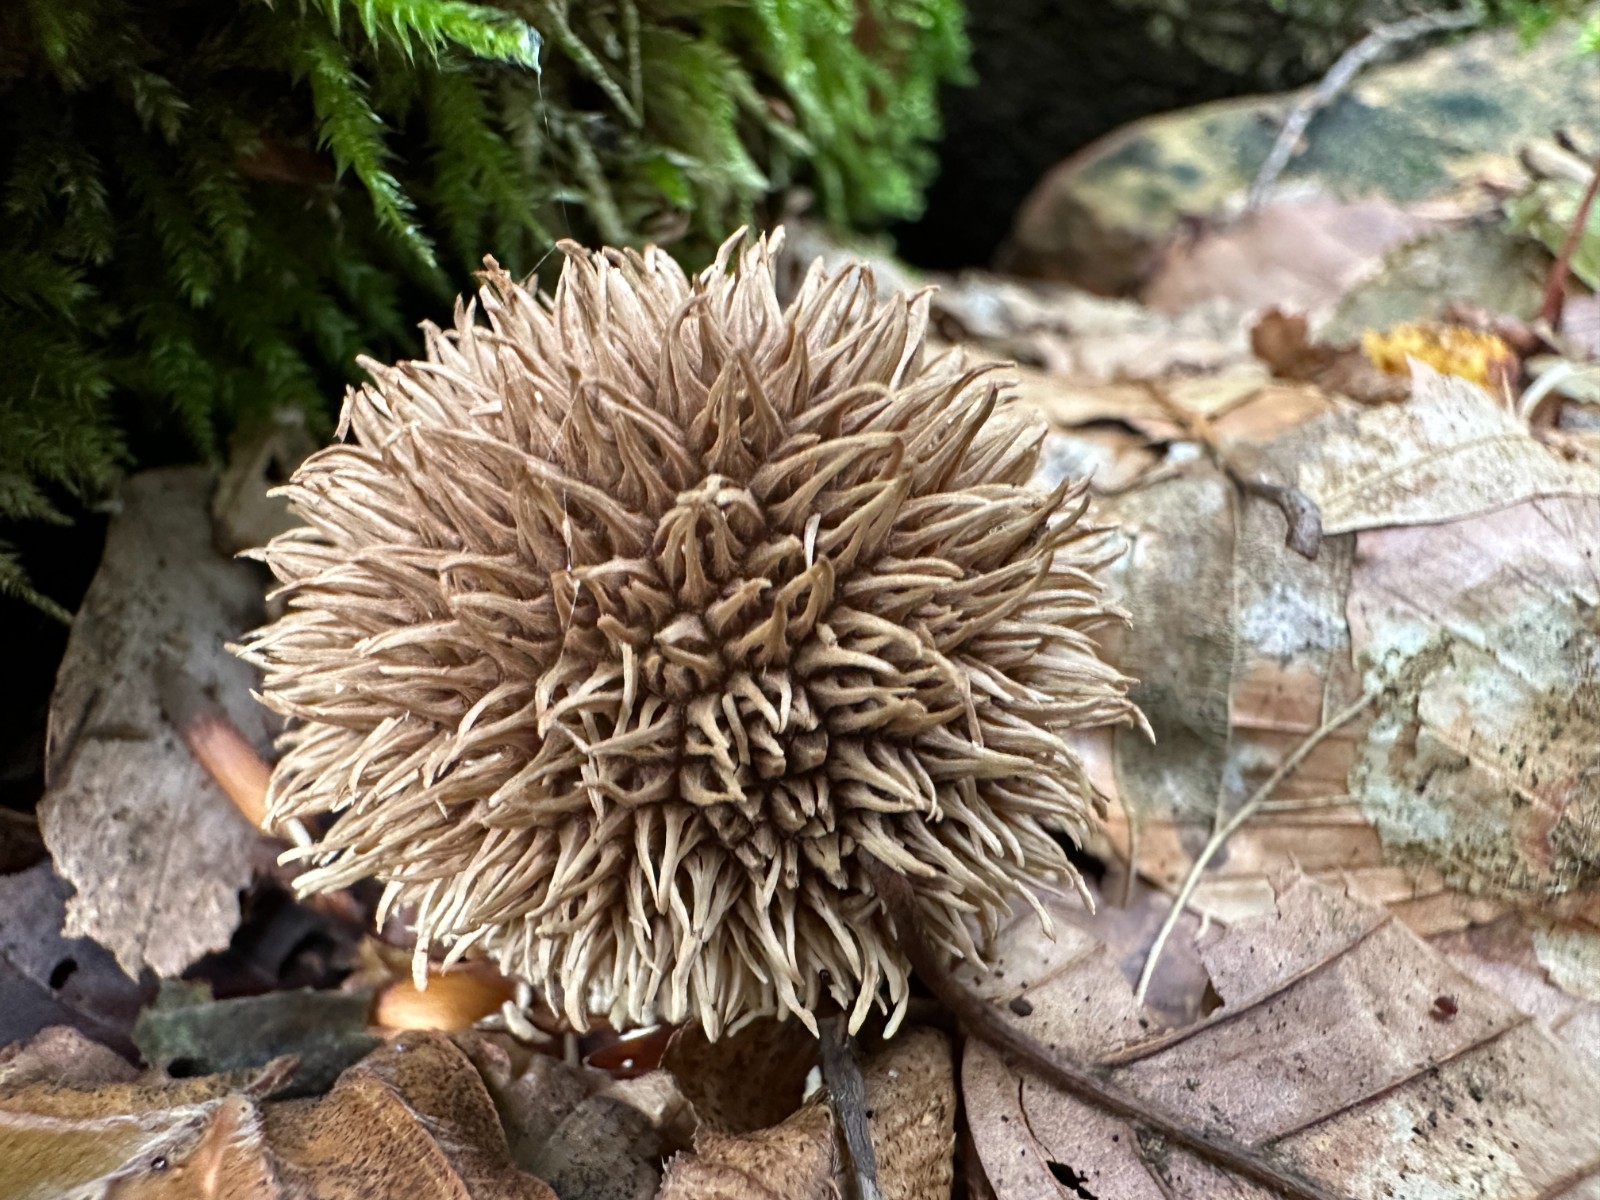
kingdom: Fungi
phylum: Basidiomycota
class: Agaricomycetes
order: Agaricales
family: Lycoperdaceae
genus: Lycoperdon
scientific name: Lycoperdon echinatum
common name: pindsvine-støvbold
